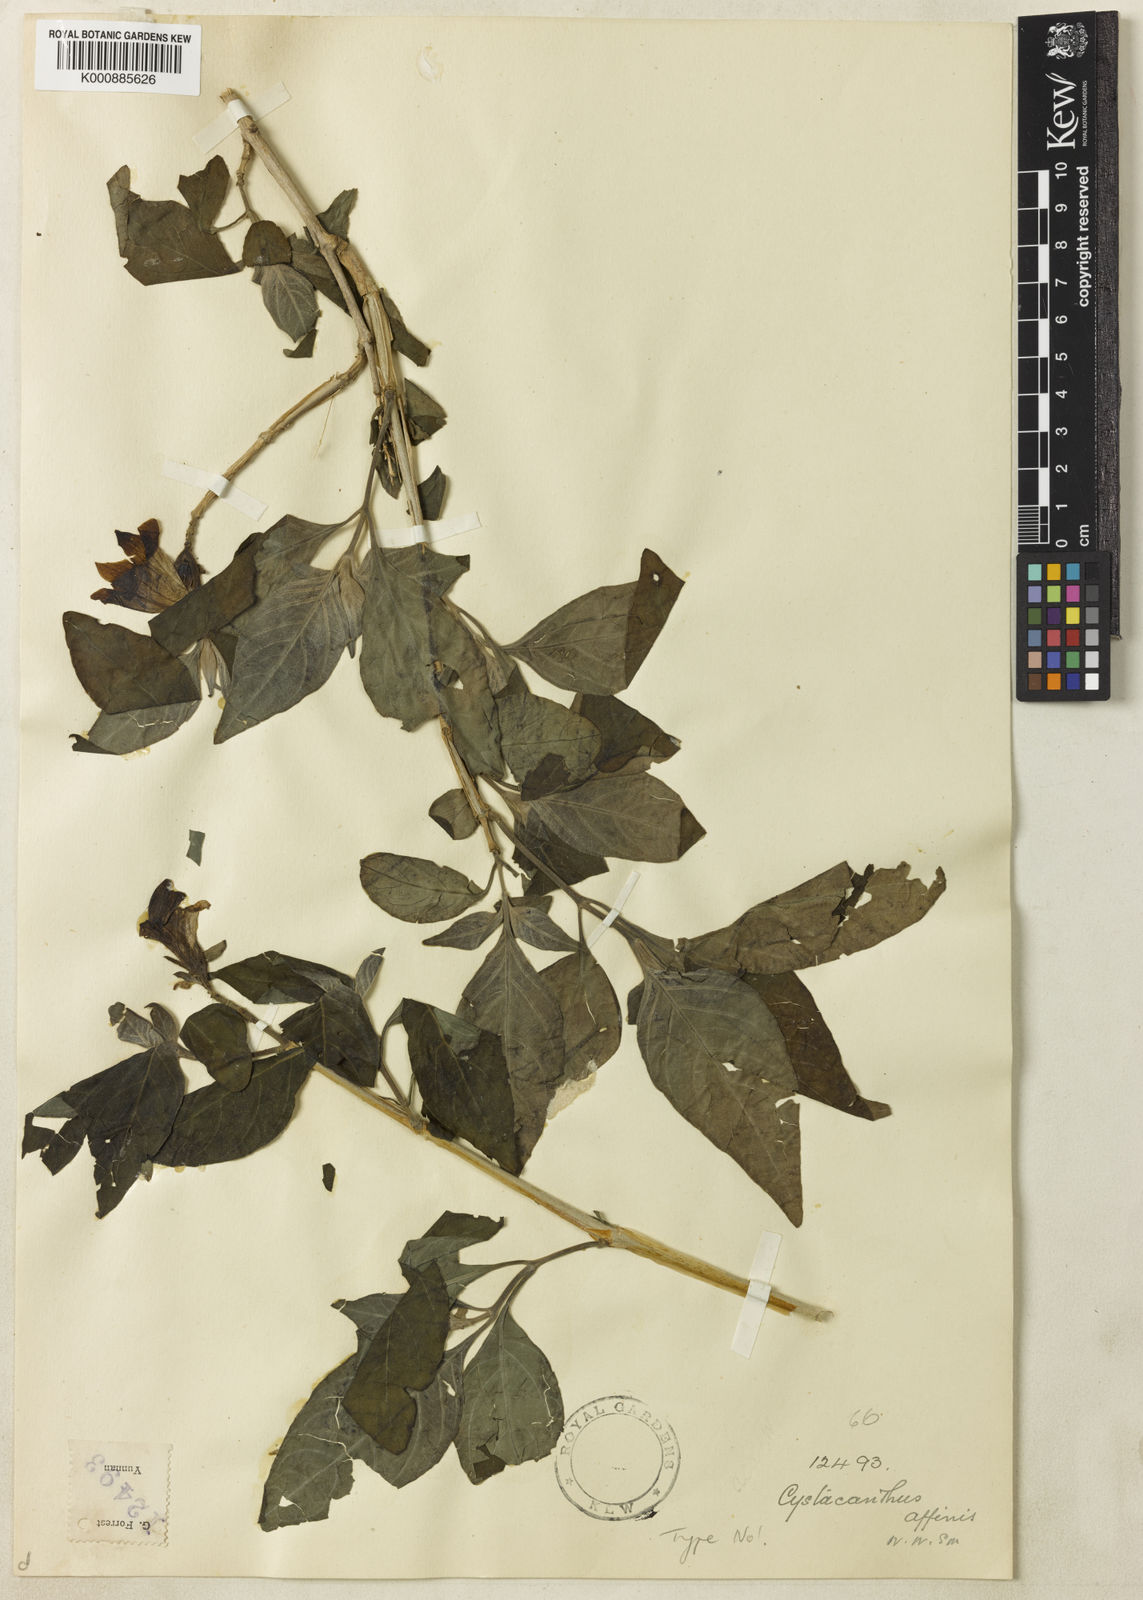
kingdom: Plantae
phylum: Tracheophyta
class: Magnoliopsida
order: Lamiales
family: Acanthaceae
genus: Phlogacanthus
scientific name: Phlogacanthus yangtsekiangensis
